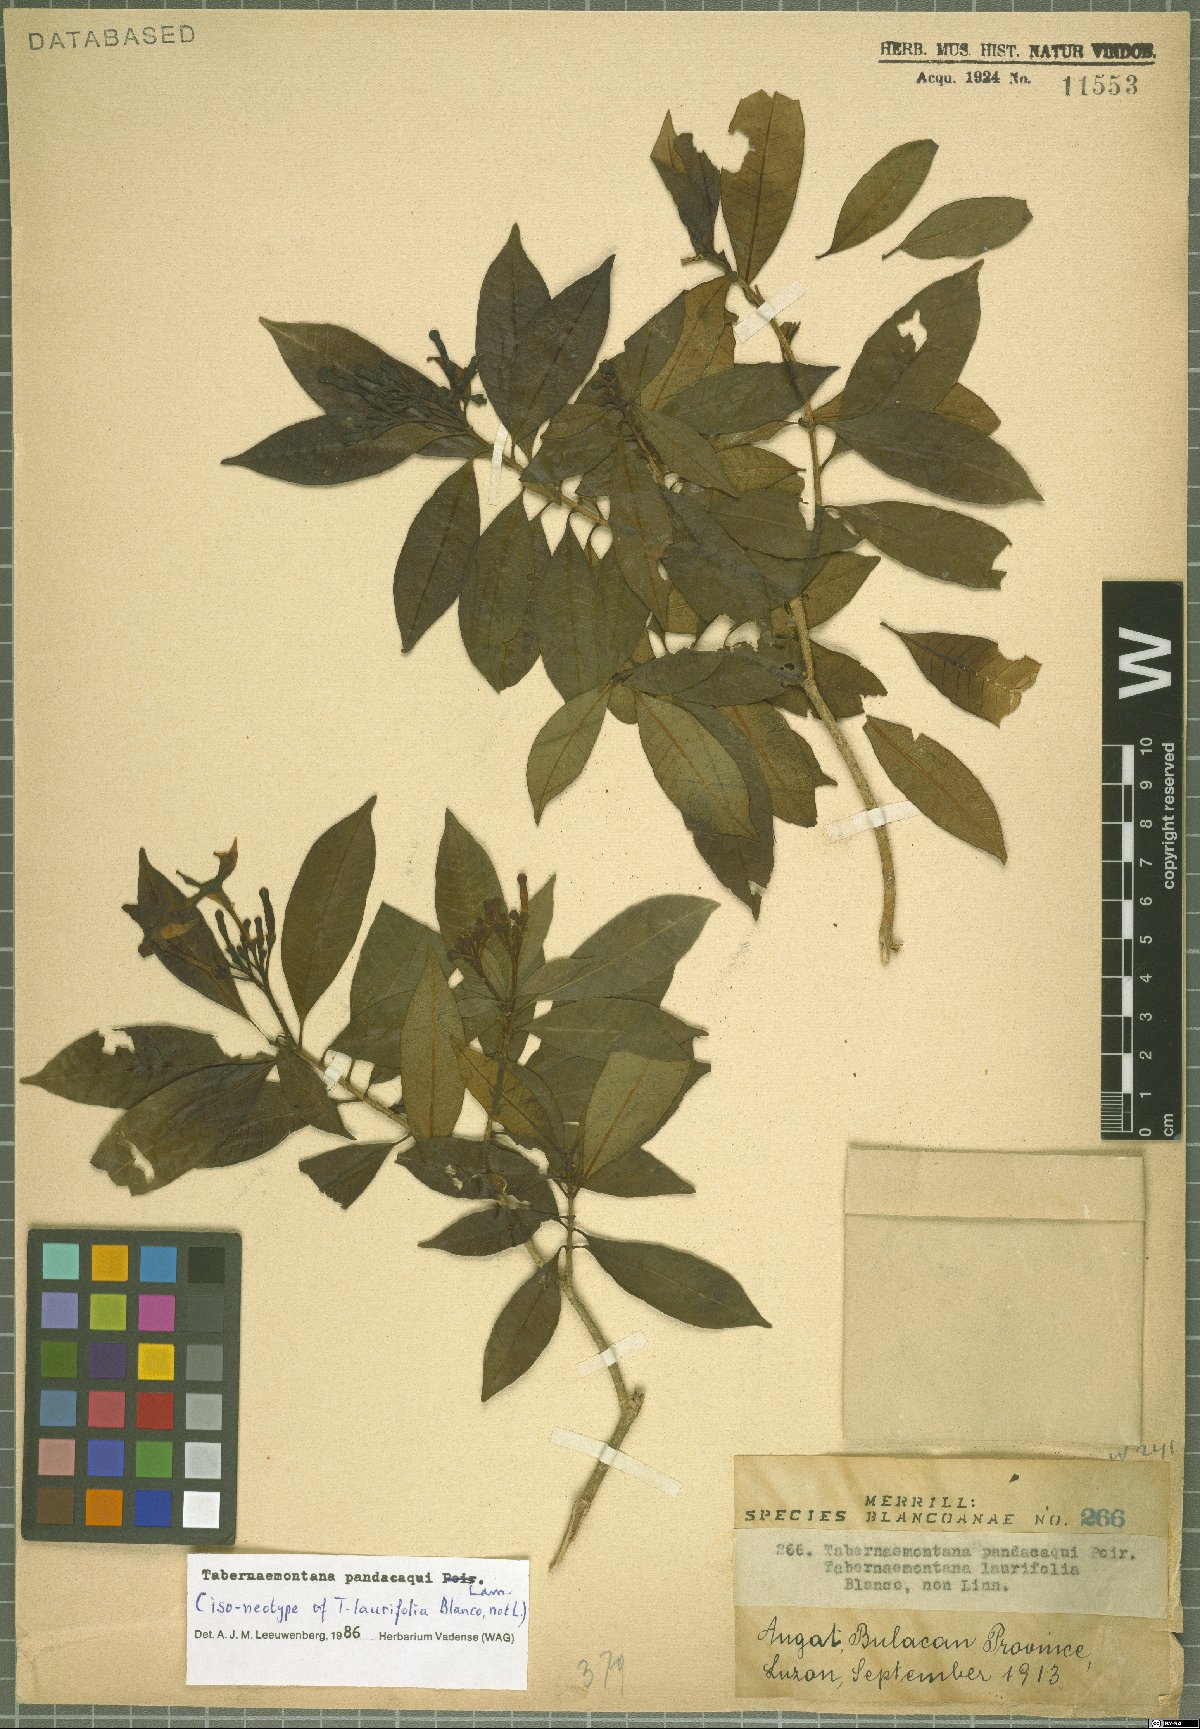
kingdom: Plantae
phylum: Tracheophyta
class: Magnoliopsida
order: Gentianales
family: Apocynaceae
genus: Tabernaemontana
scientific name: Tabernaemontana pandacaqui
